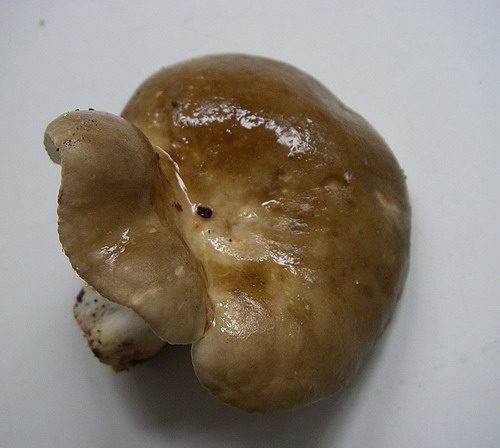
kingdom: Fungi
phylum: Basidiomycota
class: Agaricomycetes
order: Russulales
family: Russulaceae
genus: Lactarius
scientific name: Lactarius acris
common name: rosamælket mælkehat
